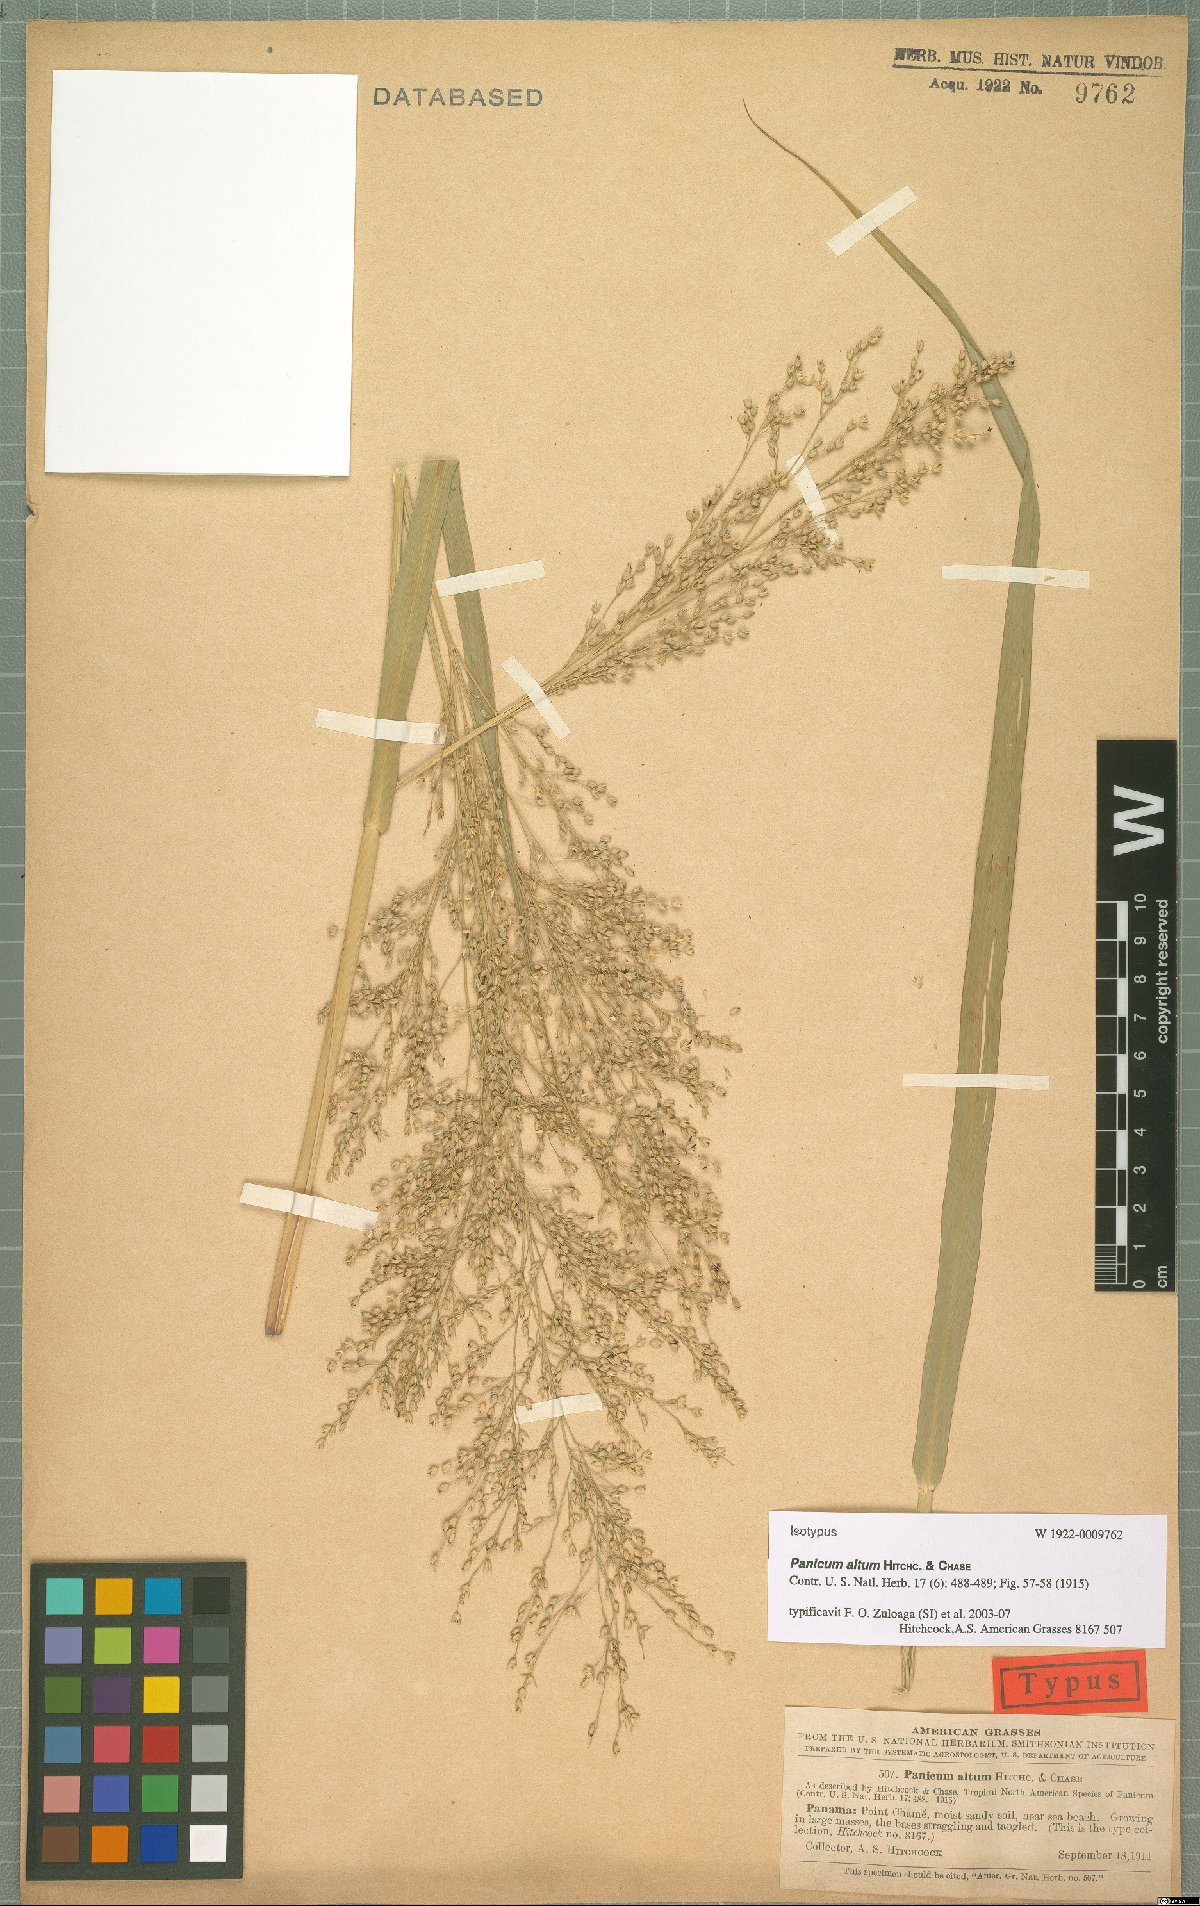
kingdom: Plantae
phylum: Tracheophyta
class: Liliopsida
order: Poales
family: Poaceae
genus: Panicum
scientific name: Panicum altum
